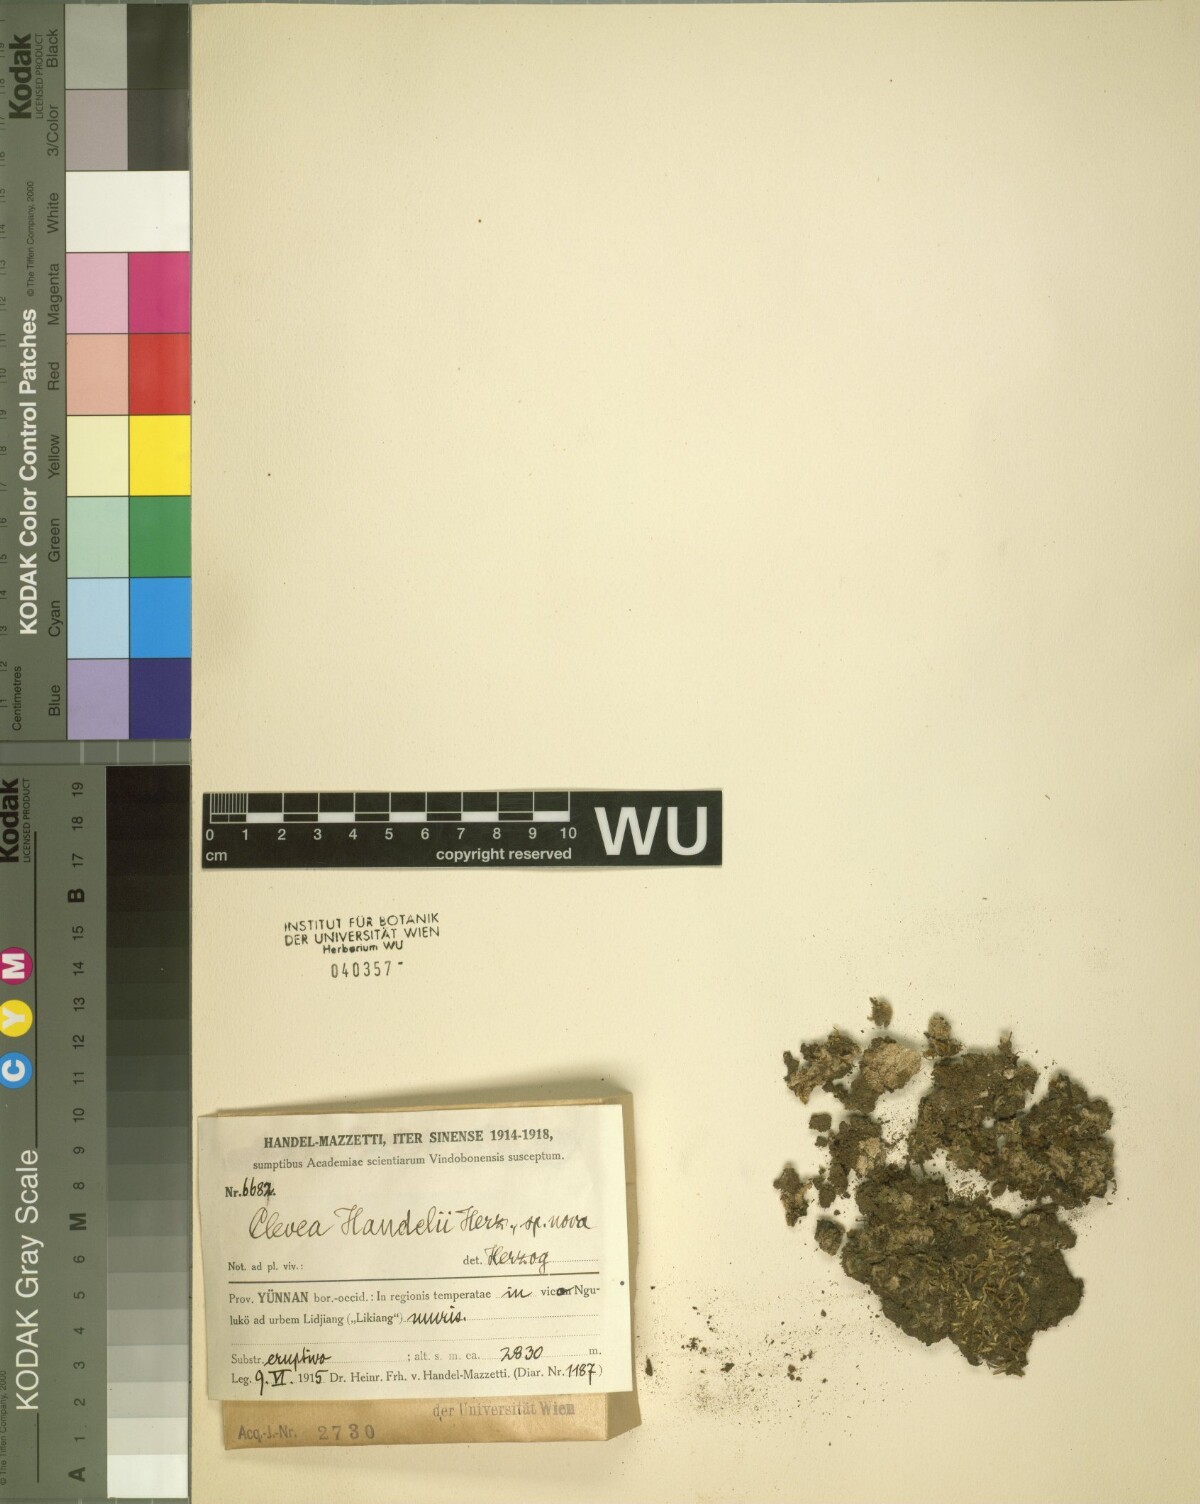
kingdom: Plantae
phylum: Marchantiophyta
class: Marchantiopsida
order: Marchantiales
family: Cleveaceae
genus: Athalamia
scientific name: Athalamia pinguis
